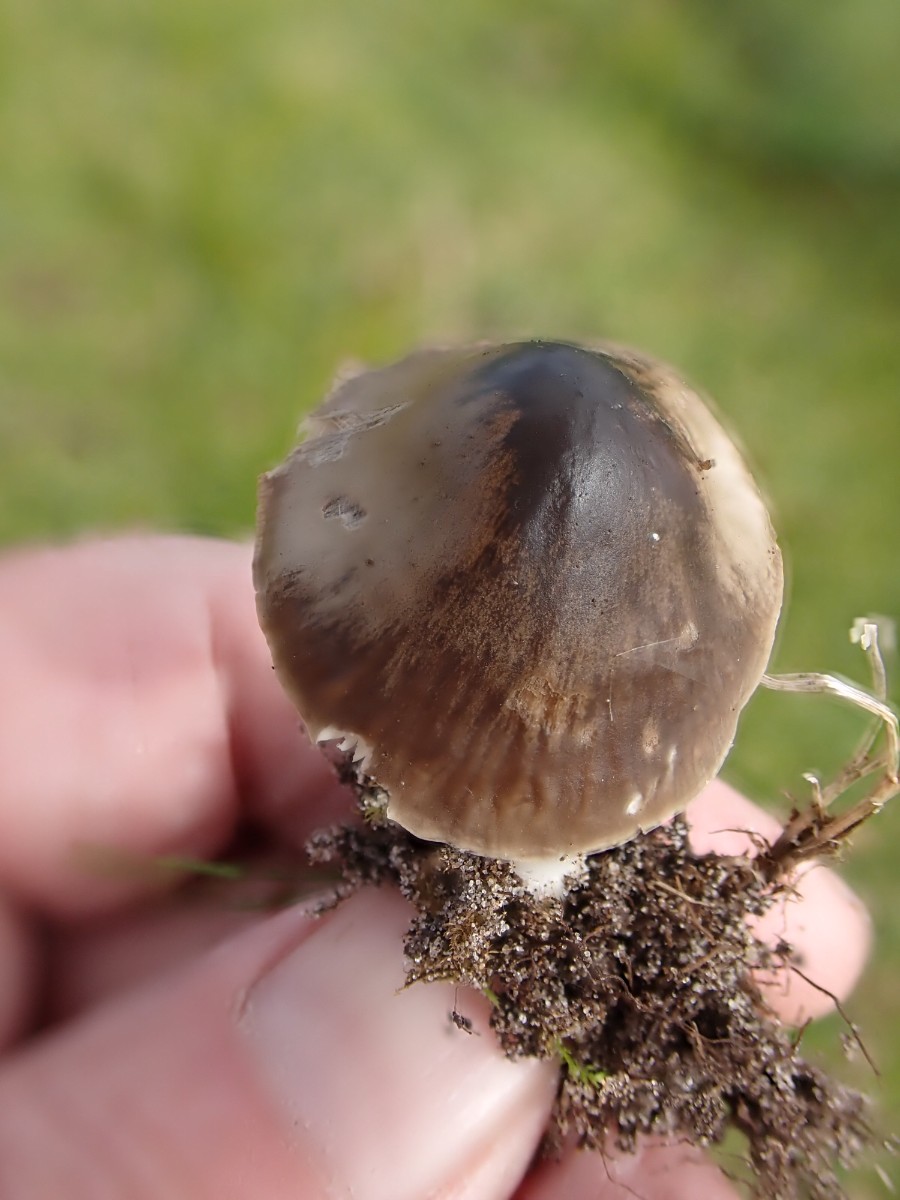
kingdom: Fungi
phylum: Basidiomycota
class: Agaricomycetes
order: Agaricales
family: Tricholomataceae
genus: Mycenella
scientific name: Mycenella
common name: dughat
